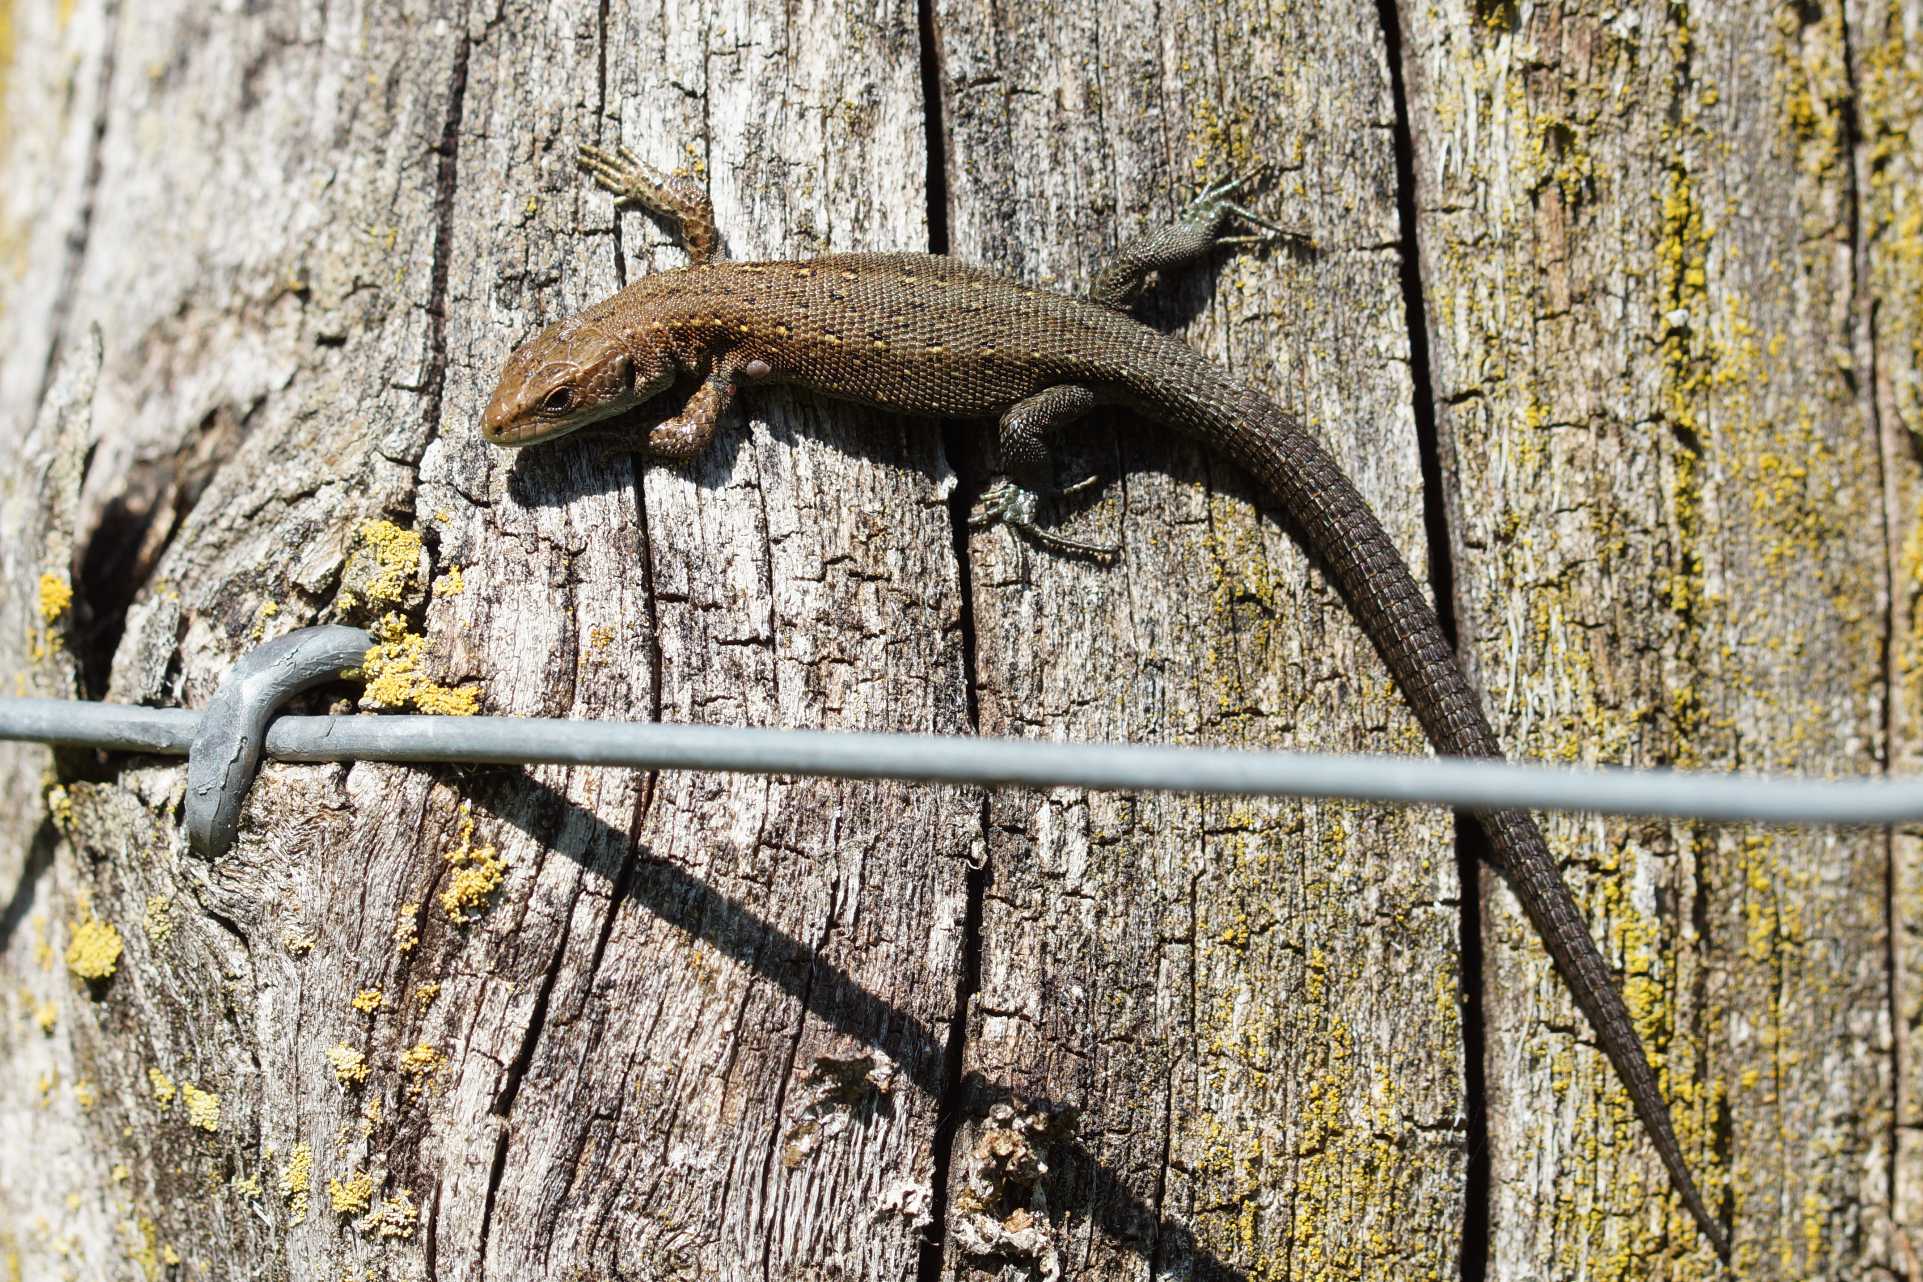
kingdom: Animalia
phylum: Chordata
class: Squamata
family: Lacertidae
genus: Zootoca
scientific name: Zootoca vivipara
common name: Skovfirben
